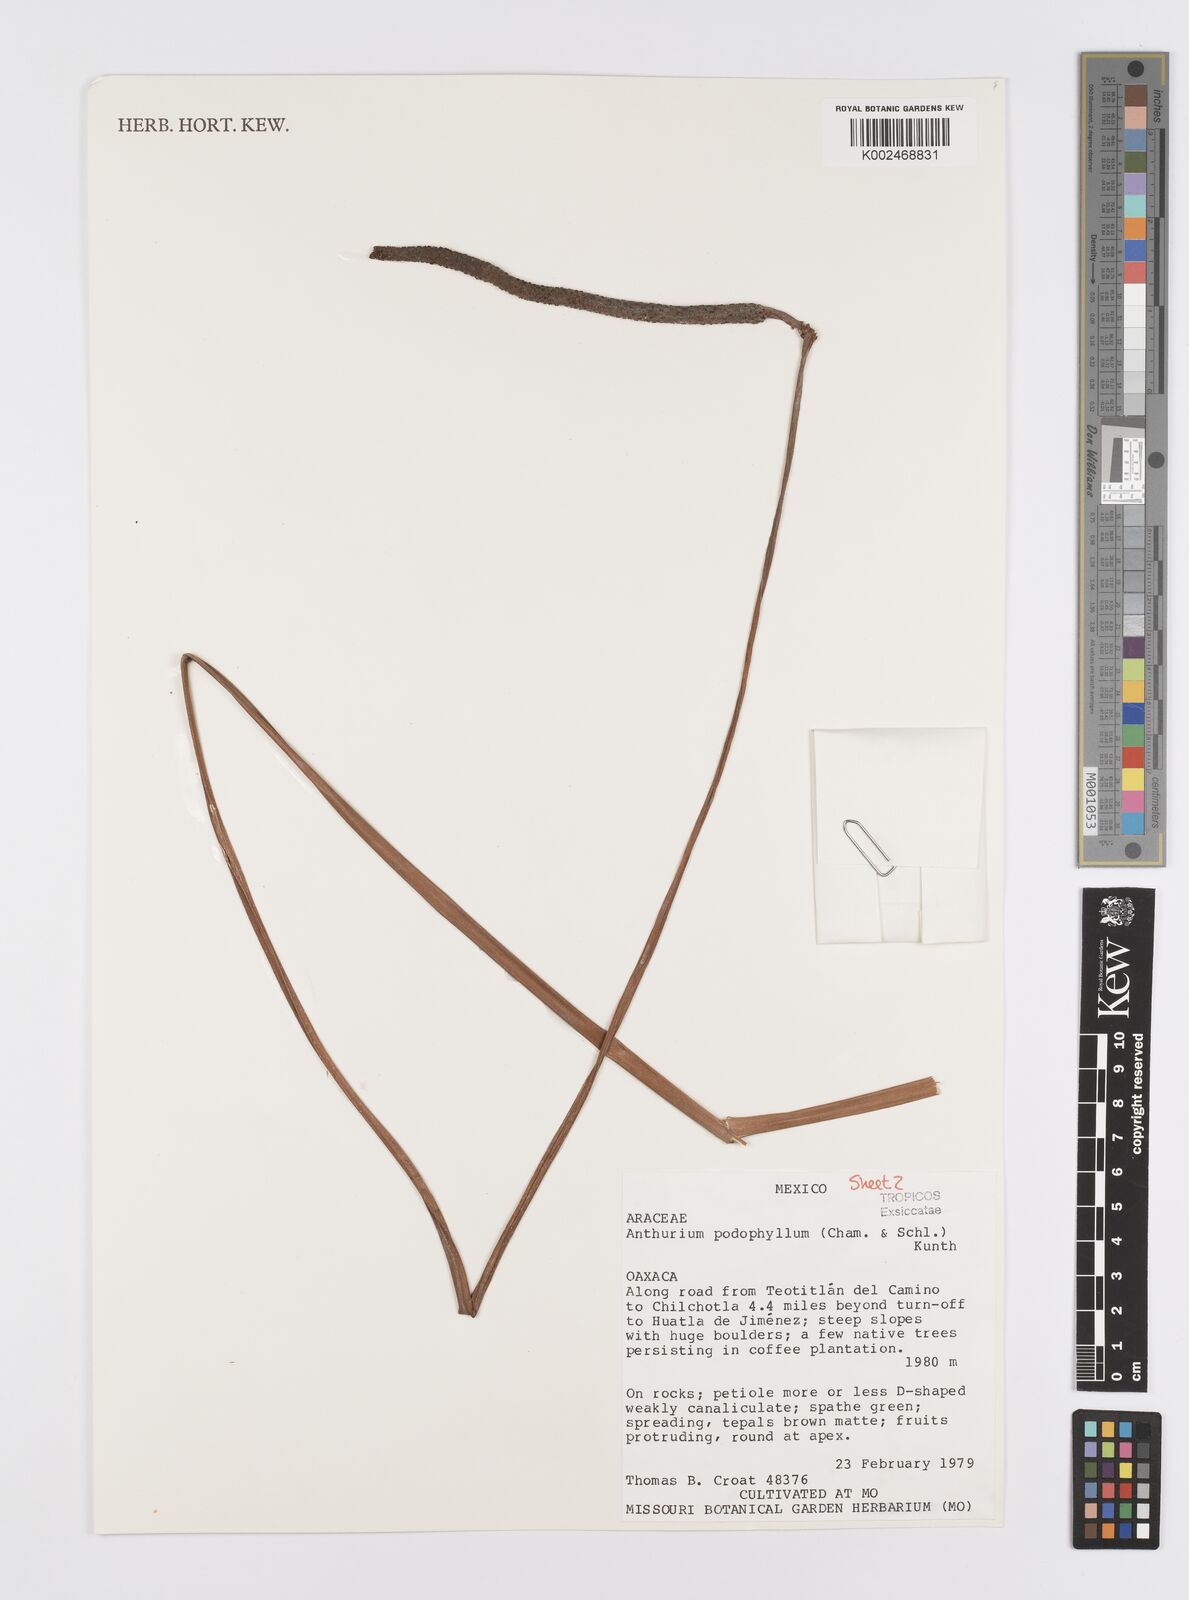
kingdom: Plantae
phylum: Tracheophyta
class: Liliopsida
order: Alismatales
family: Araceae
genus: Anthurium
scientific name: Anthurium podophyllum
